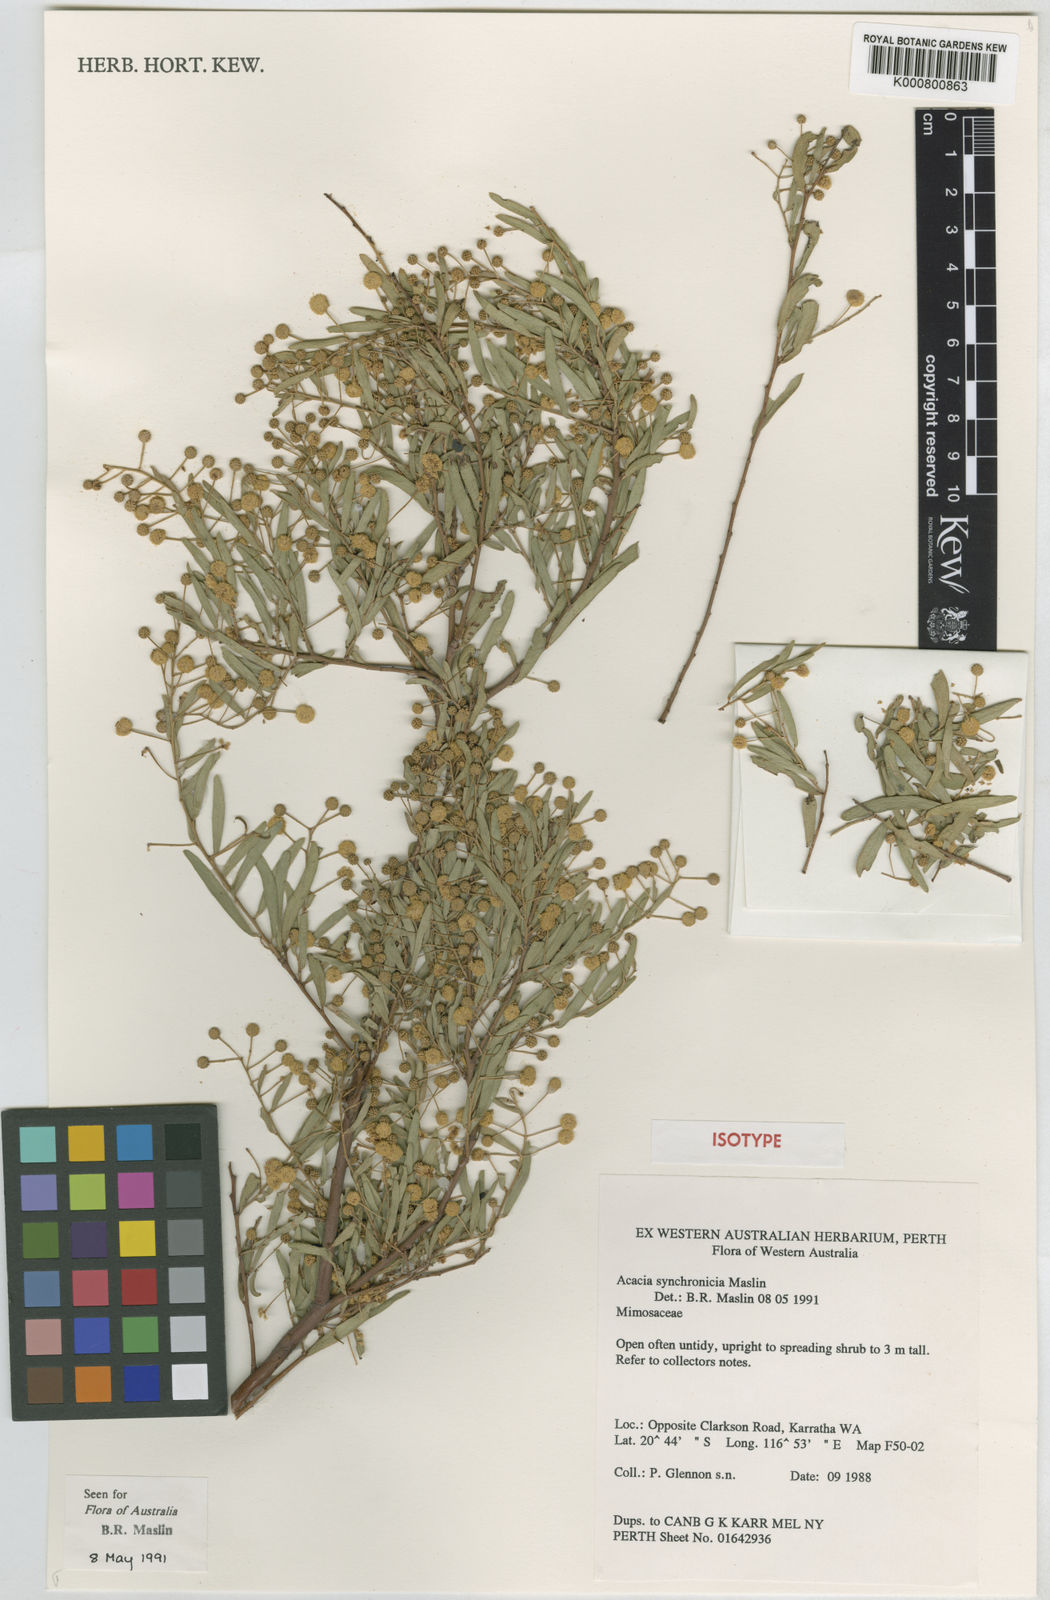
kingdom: Plantae
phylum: Tracheophyta
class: Magnoliopsida
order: Fabales
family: Fabaceae
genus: Acacia
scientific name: Acacia synchronicia
